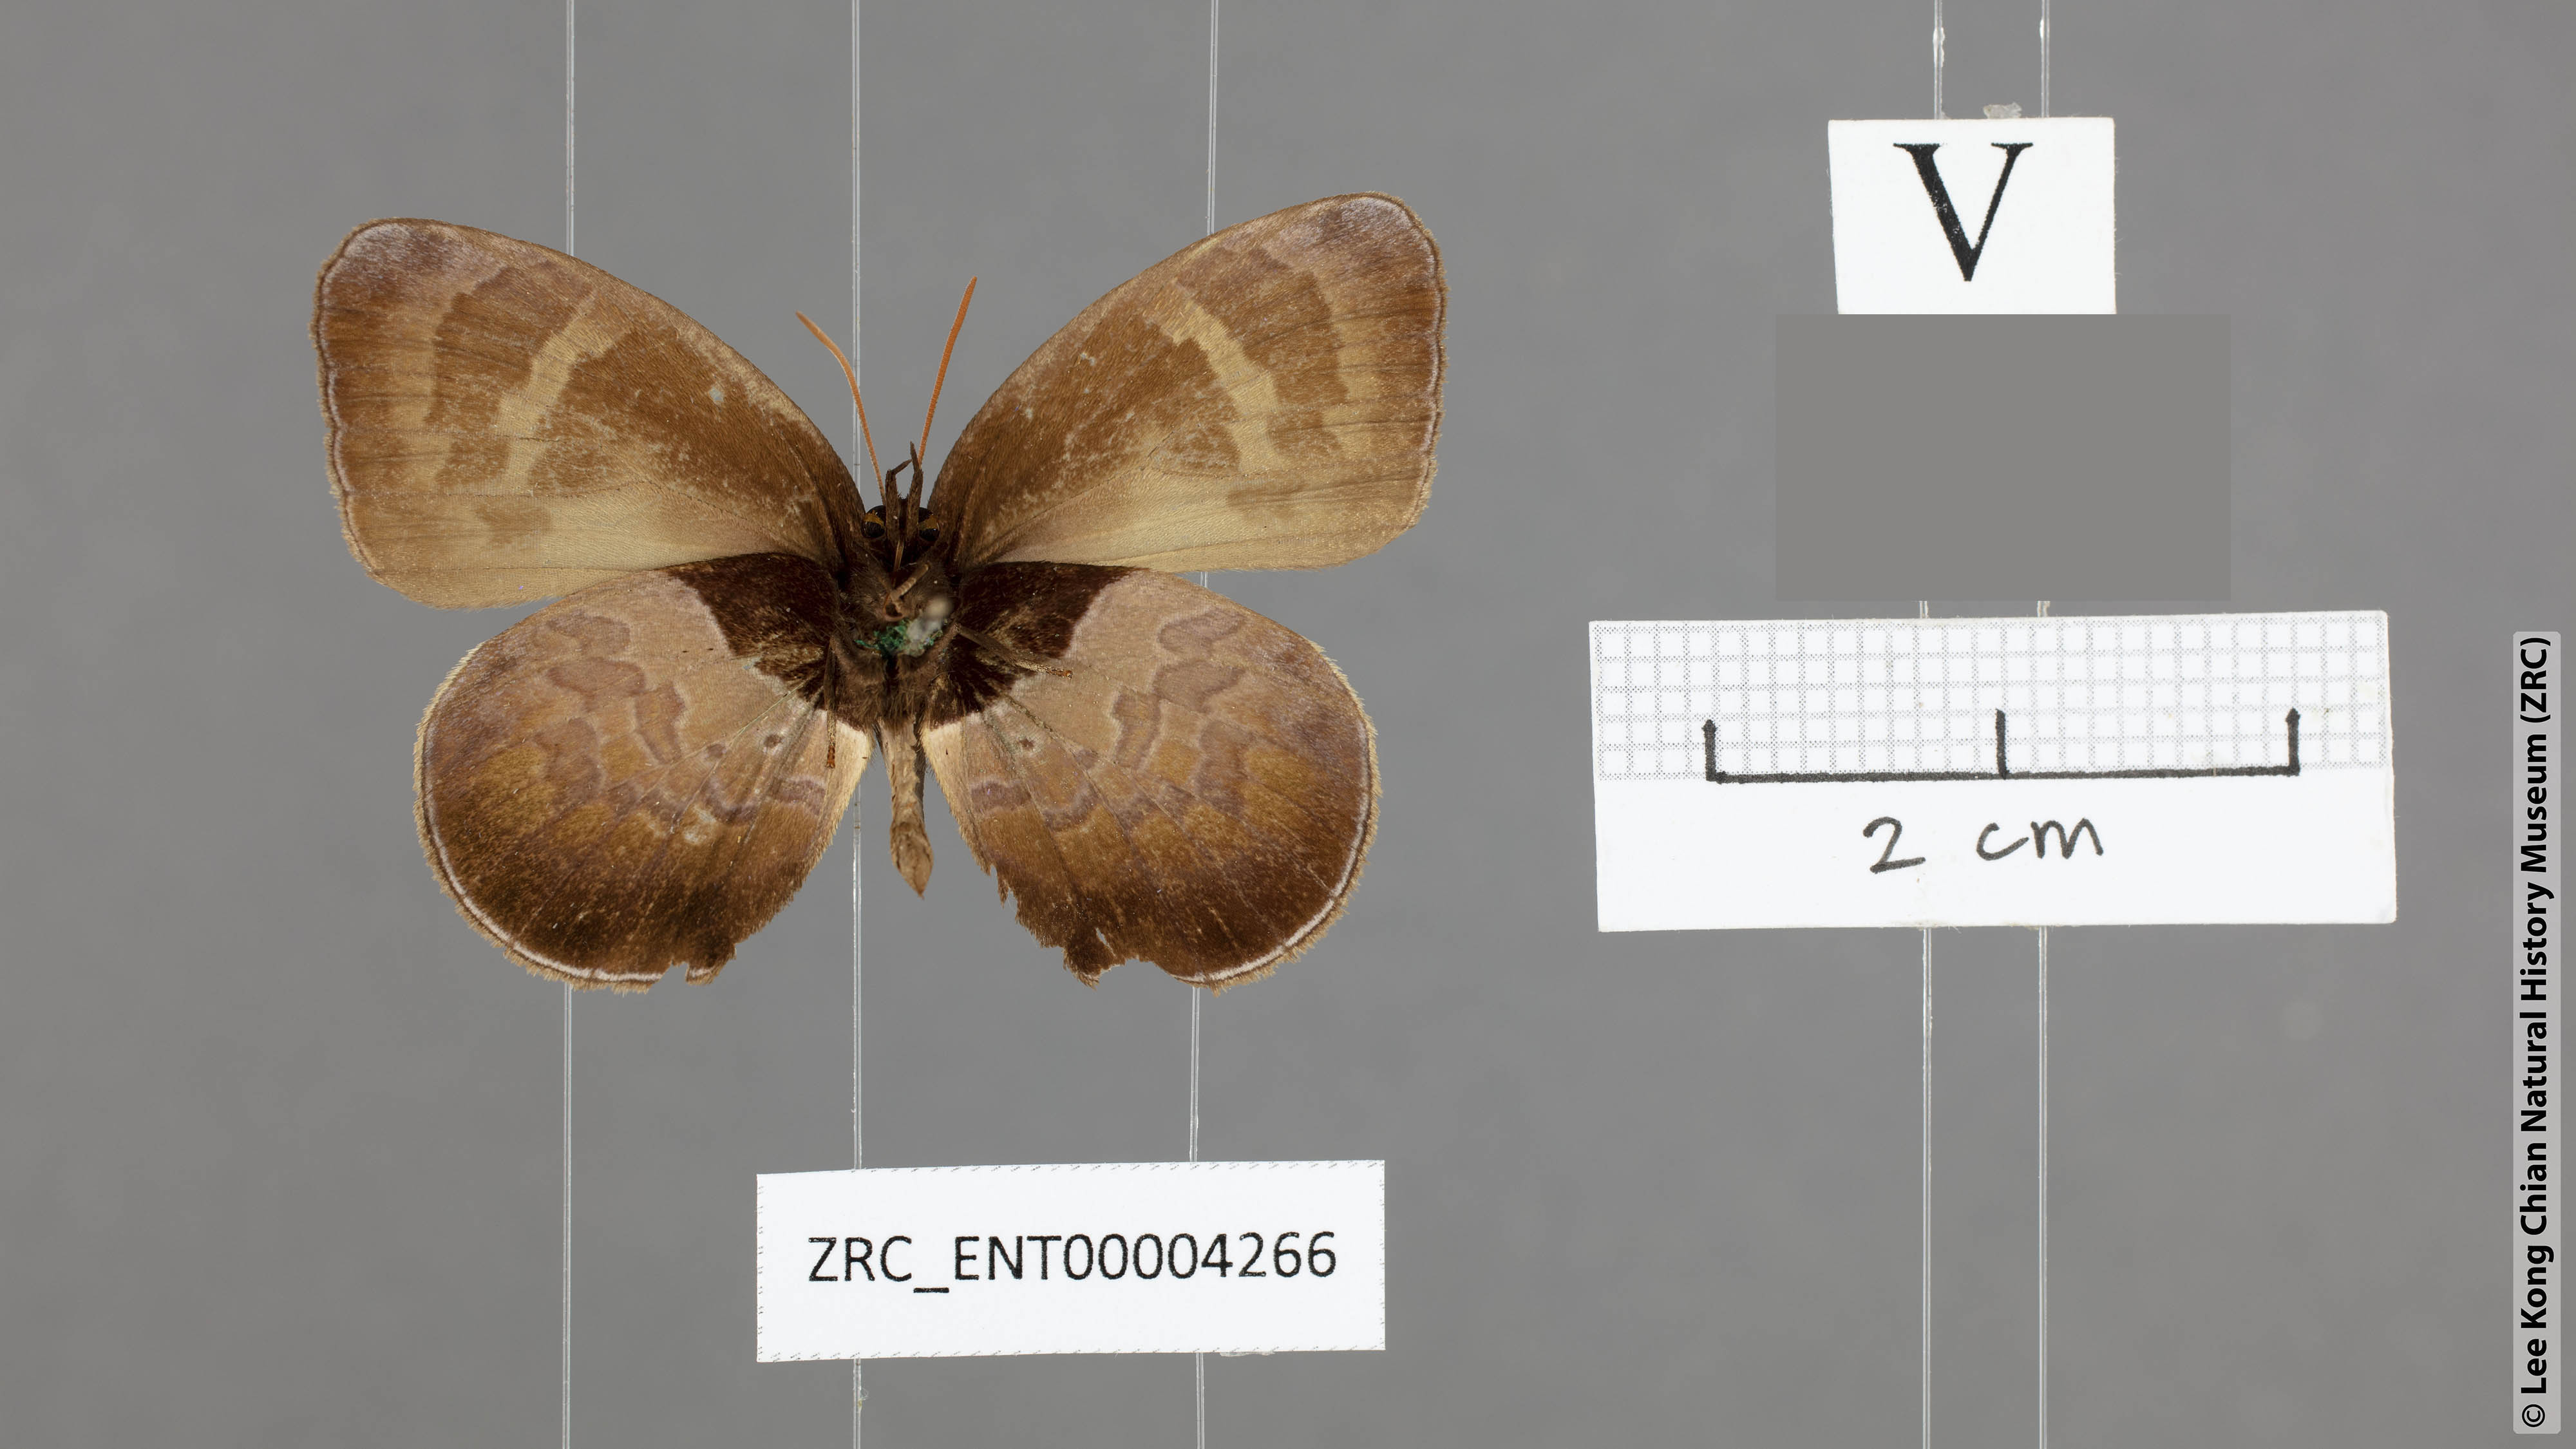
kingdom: Animalia
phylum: Arthropoda
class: Insecta
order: Lepidoptera
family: Lycaenidae
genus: Flos
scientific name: Flos
